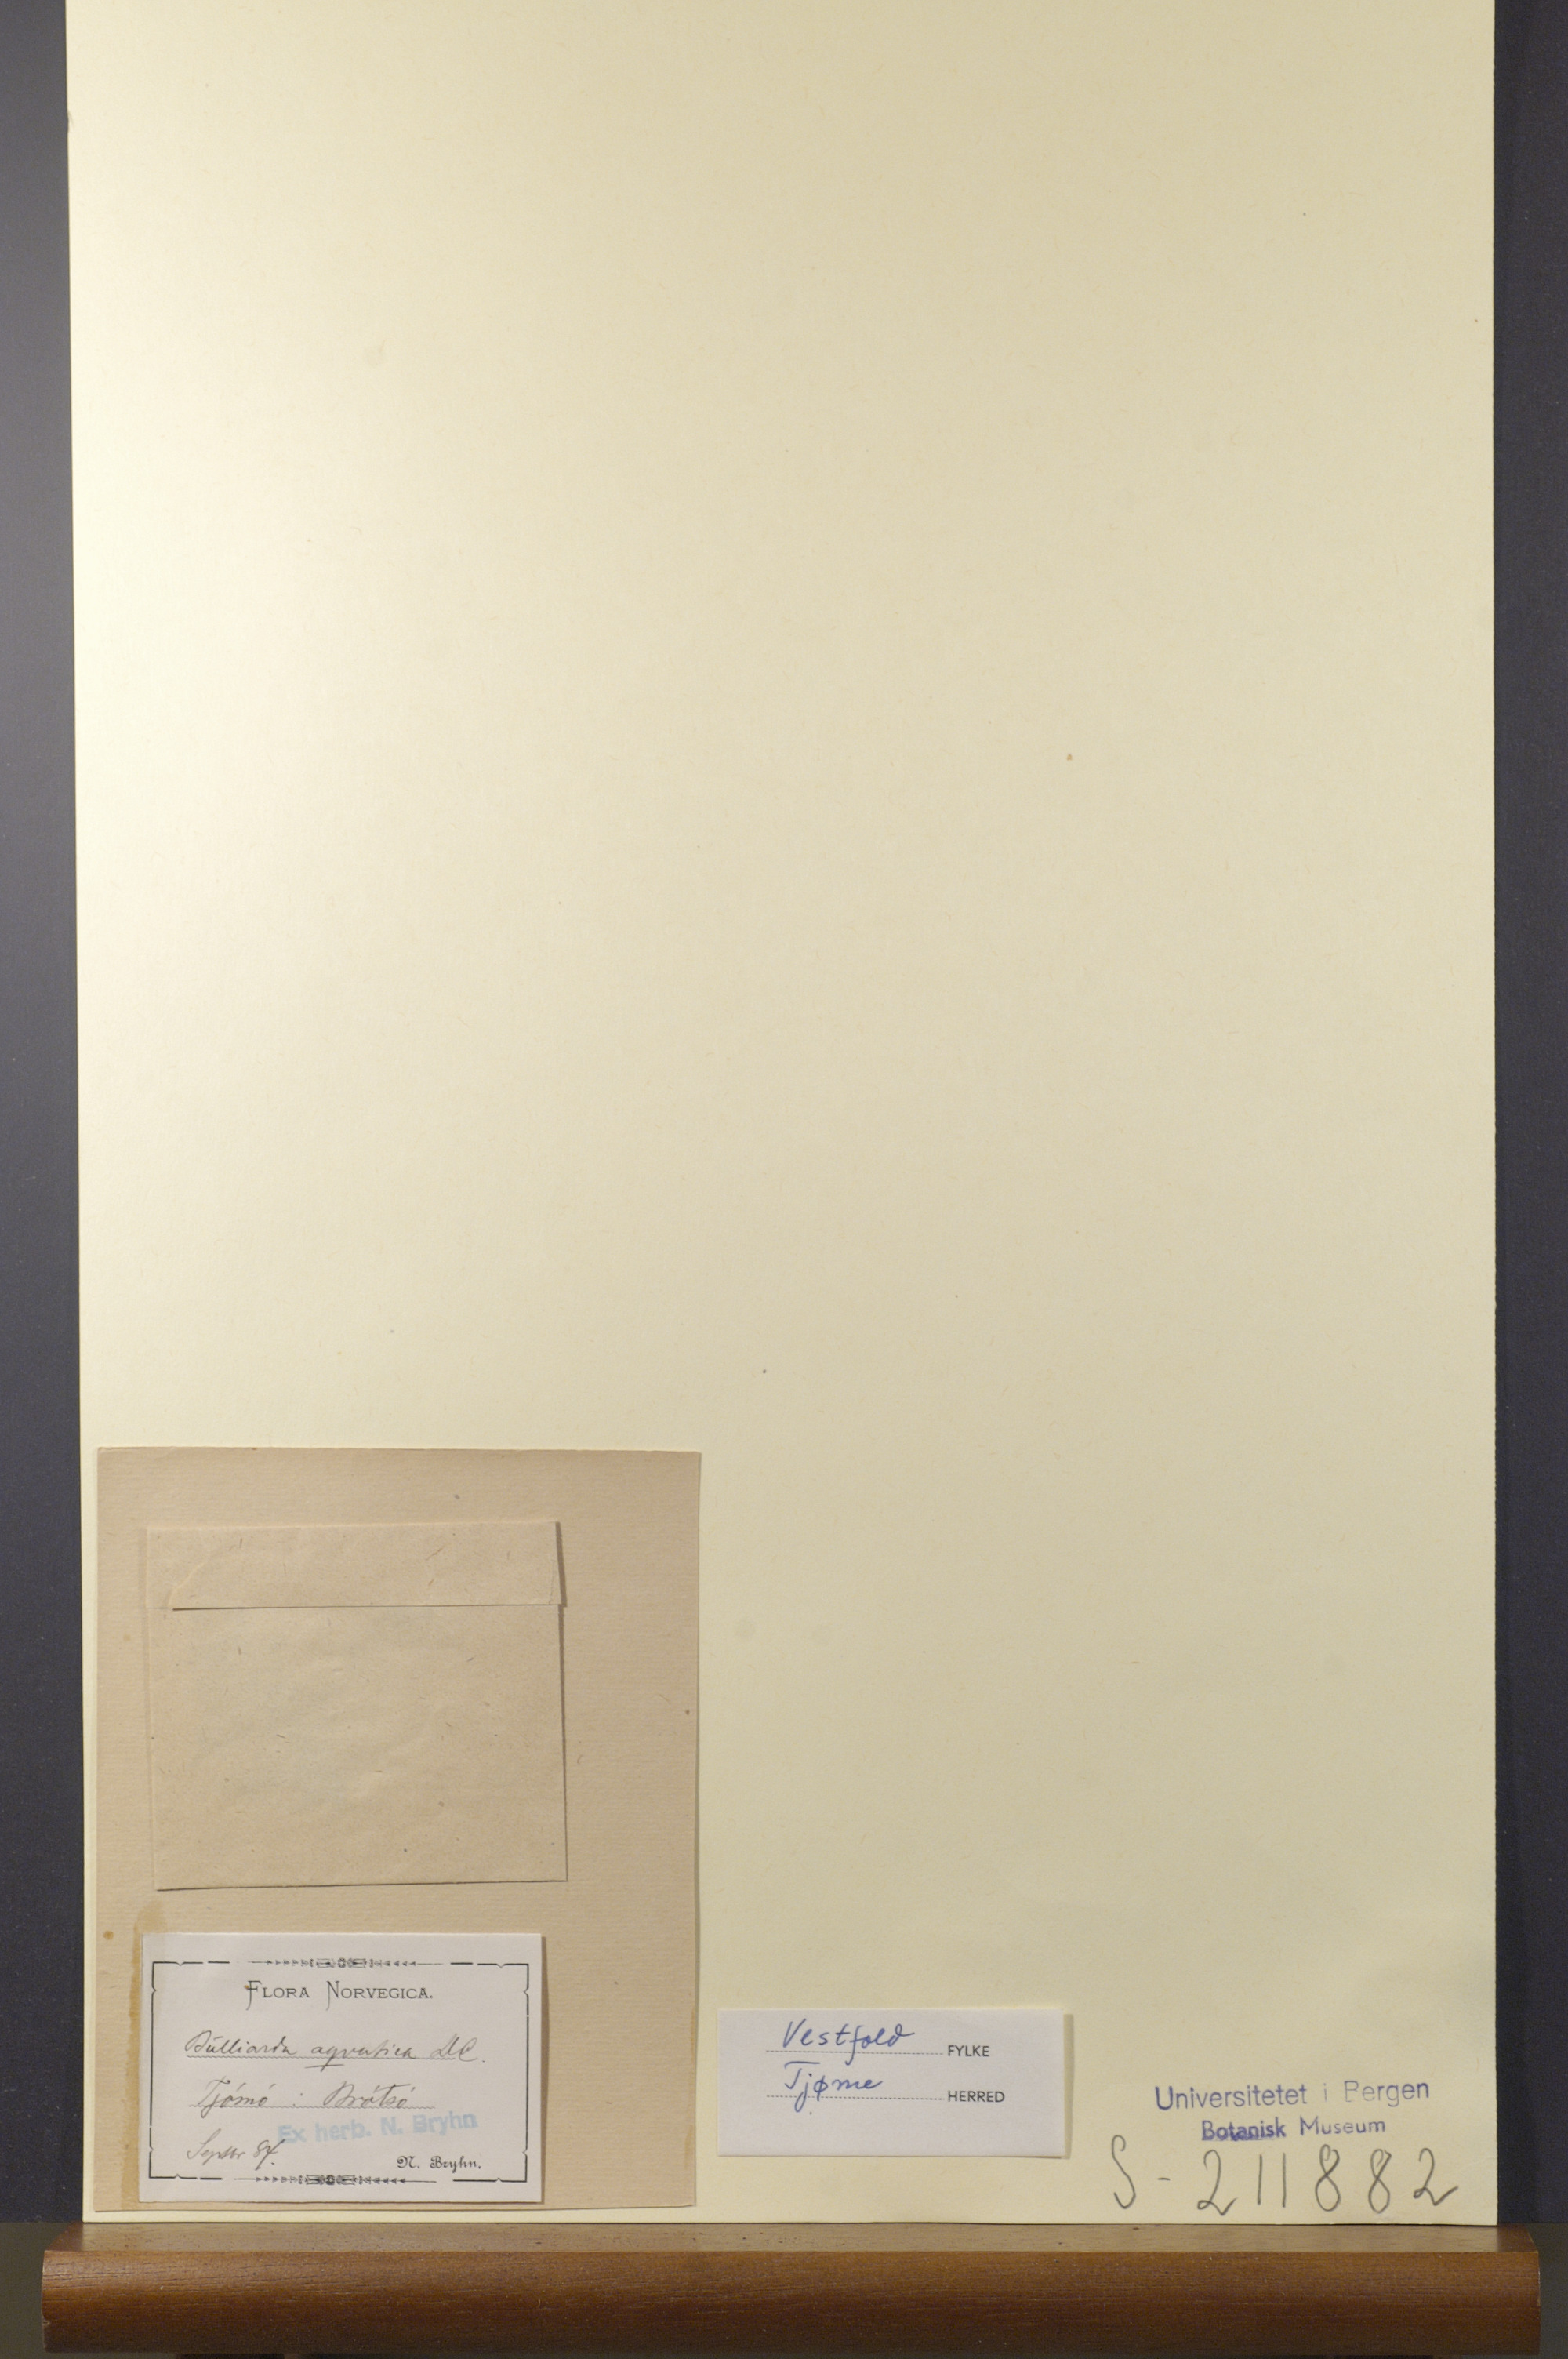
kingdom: Plantae
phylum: Tracheophyta
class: Magnoliopsida
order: Saxifragales
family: Crassulaceae
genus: Crassula
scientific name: Crassula aquatica
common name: Pigmyweed
